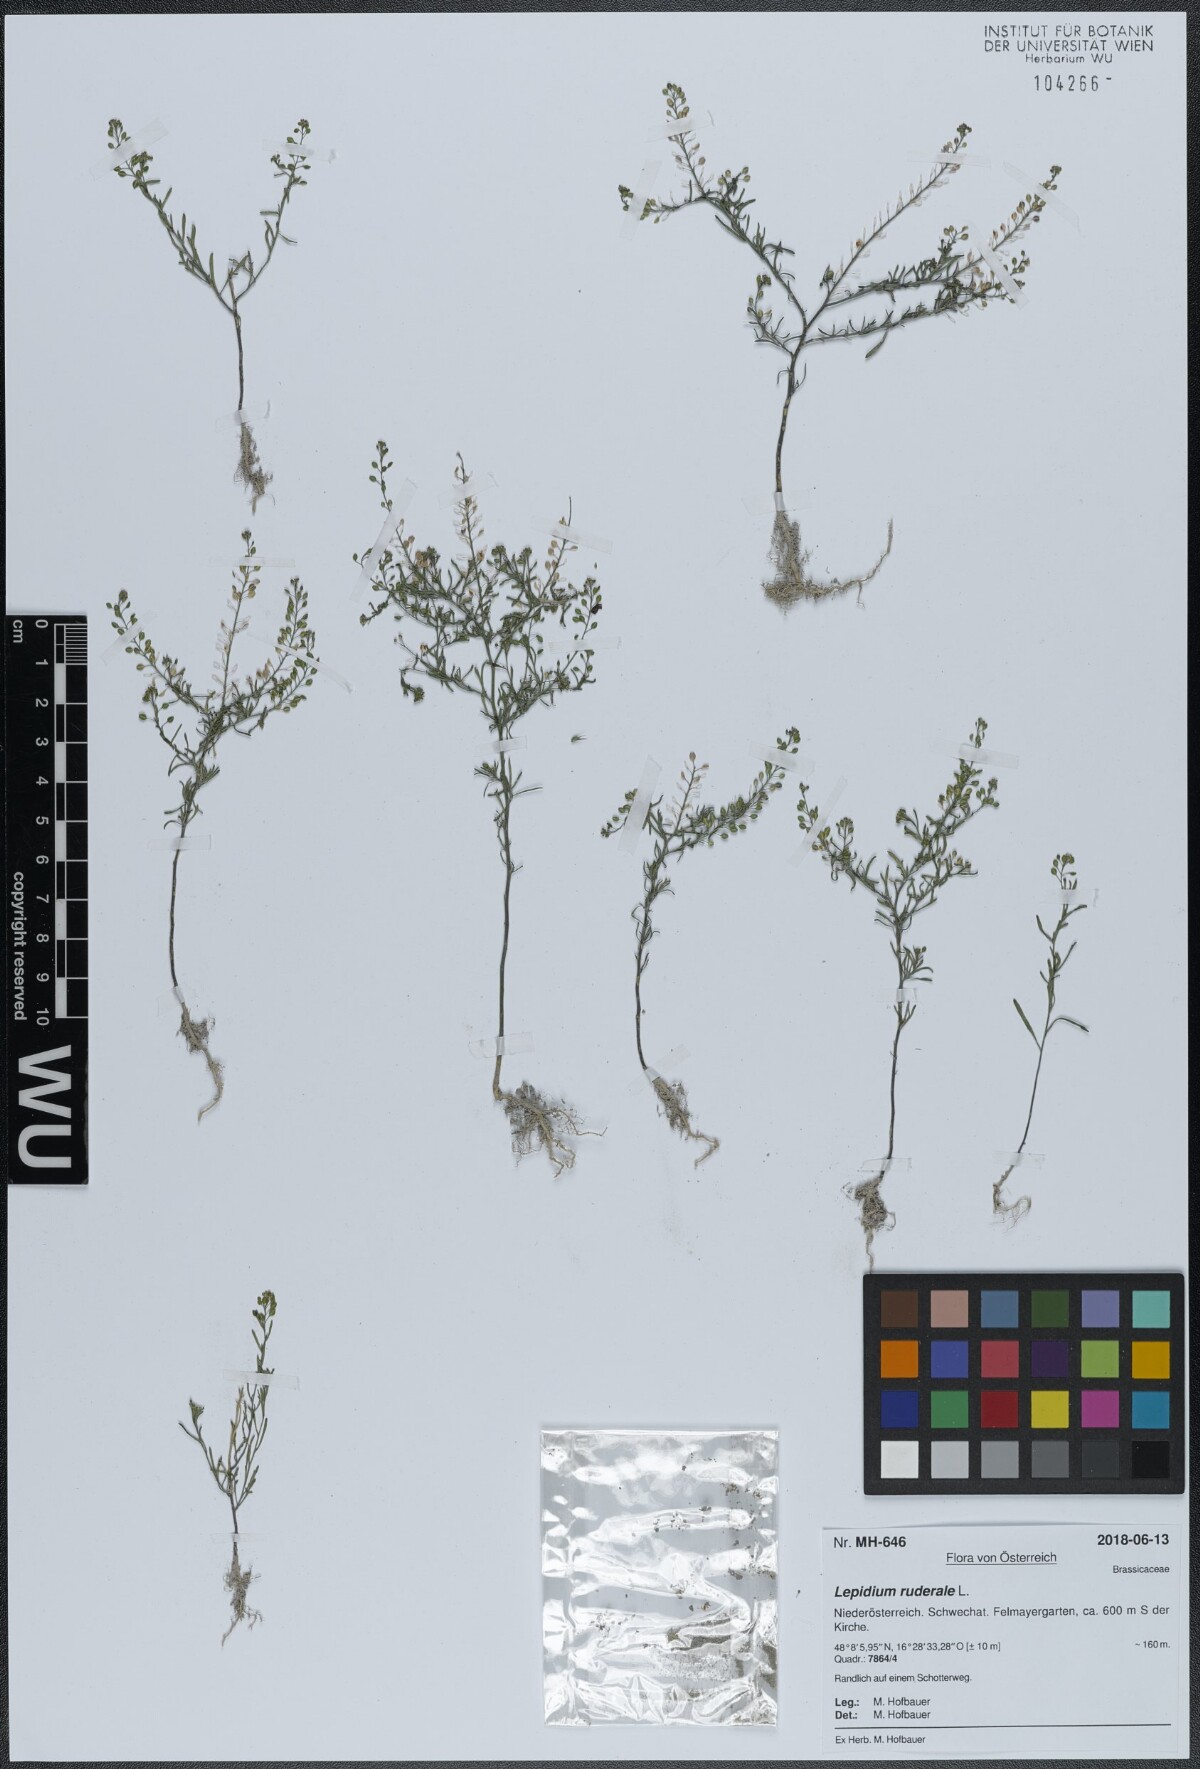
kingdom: Plantae
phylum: Tracheophyta
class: Magnoliopsida
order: Brassicales
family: Brassicaceae
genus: Lepidium
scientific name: Lepidium ruderale
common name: Narrow-leaved pepperwort
